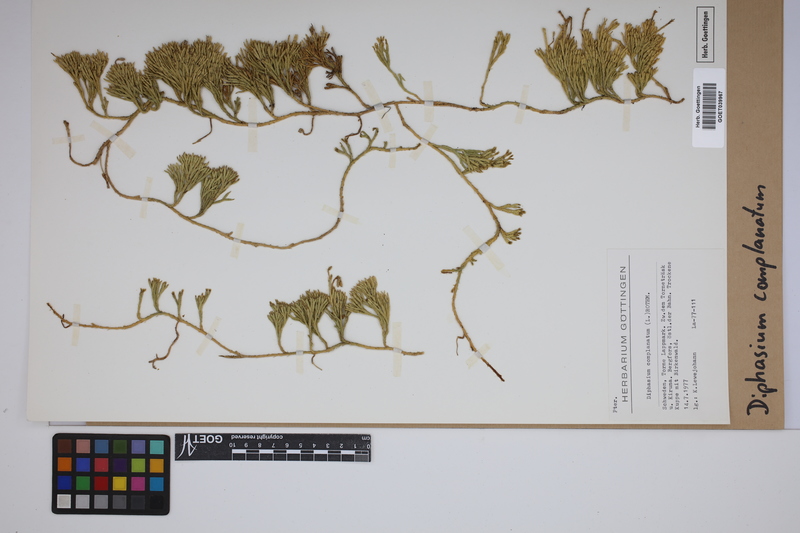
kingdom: Plantae
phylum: Tracheophyta
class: Lycopodiopsida
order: Lycopodiales
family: Lycopodiaceae
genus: Diphasiastrum
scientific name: Diphasiastrum complanatum
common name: Northern running-pine
